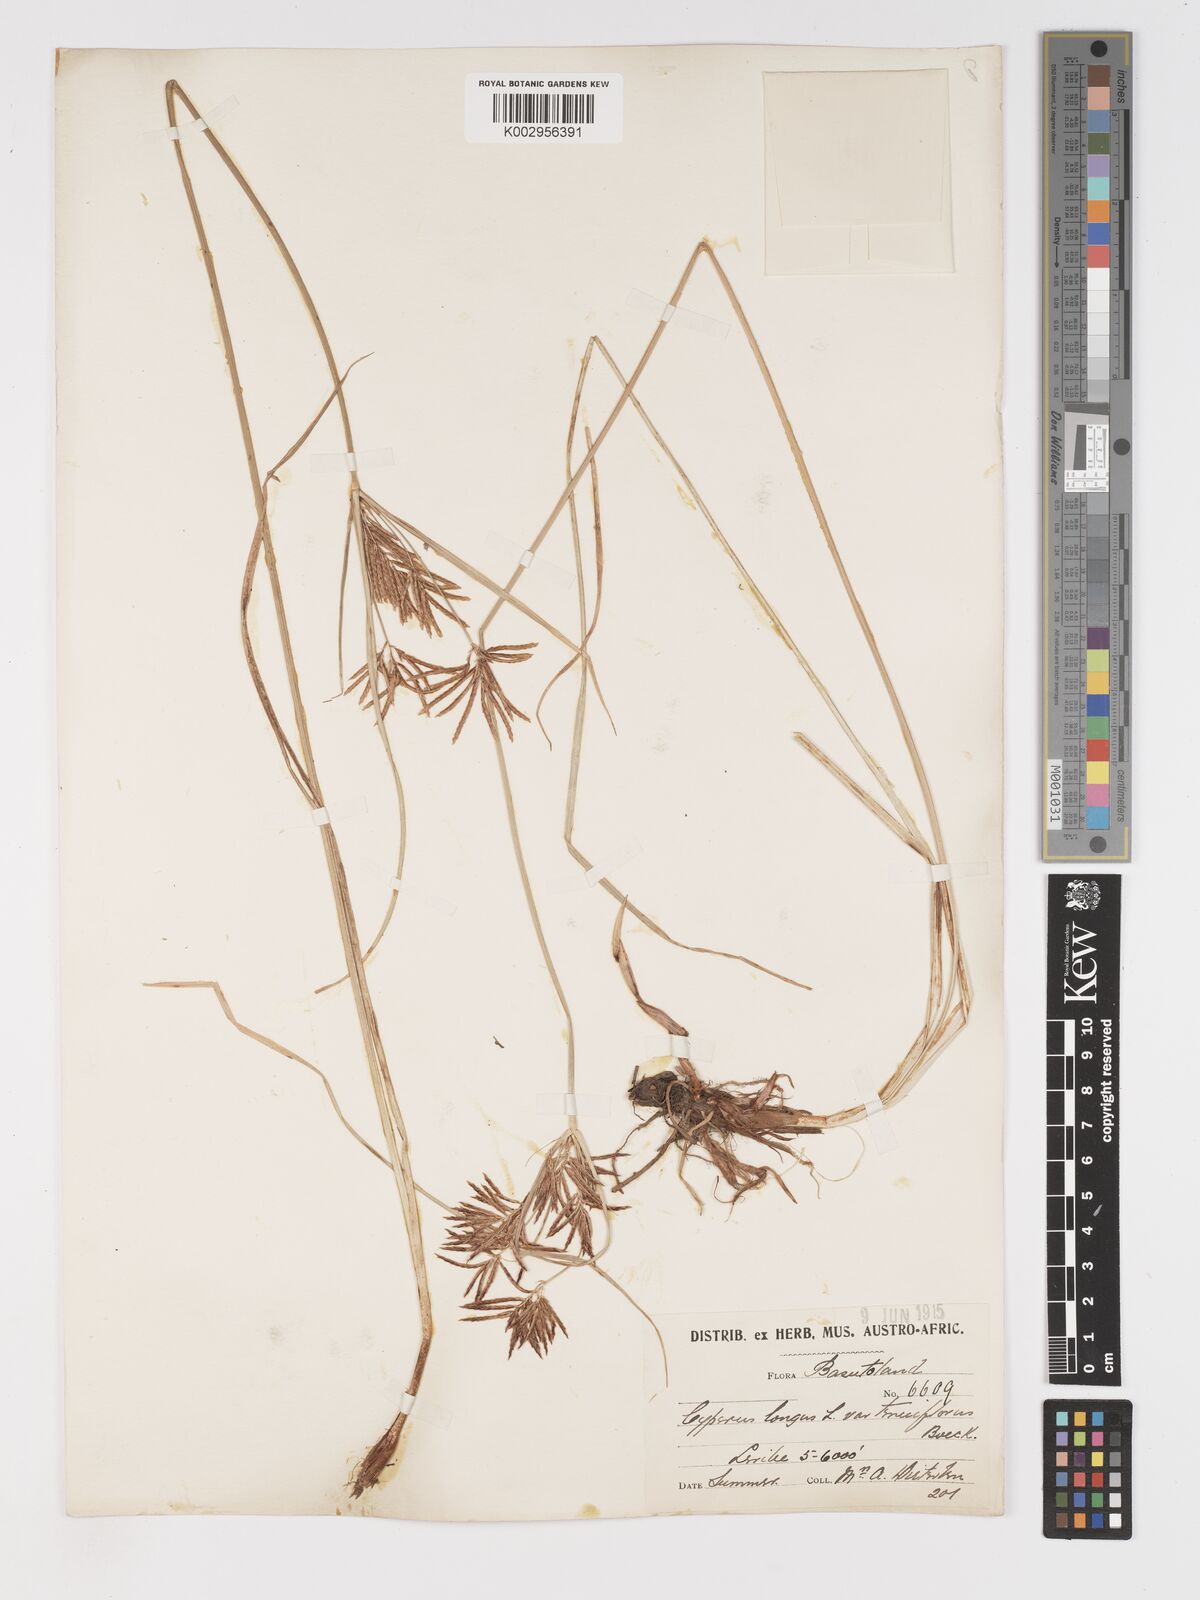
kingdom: Plantae
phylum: Tracheophyta
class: Liliopsida
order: Poales
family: Cyperaceae
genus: Cyperus
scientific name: Cyperus longus
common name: Galingale
